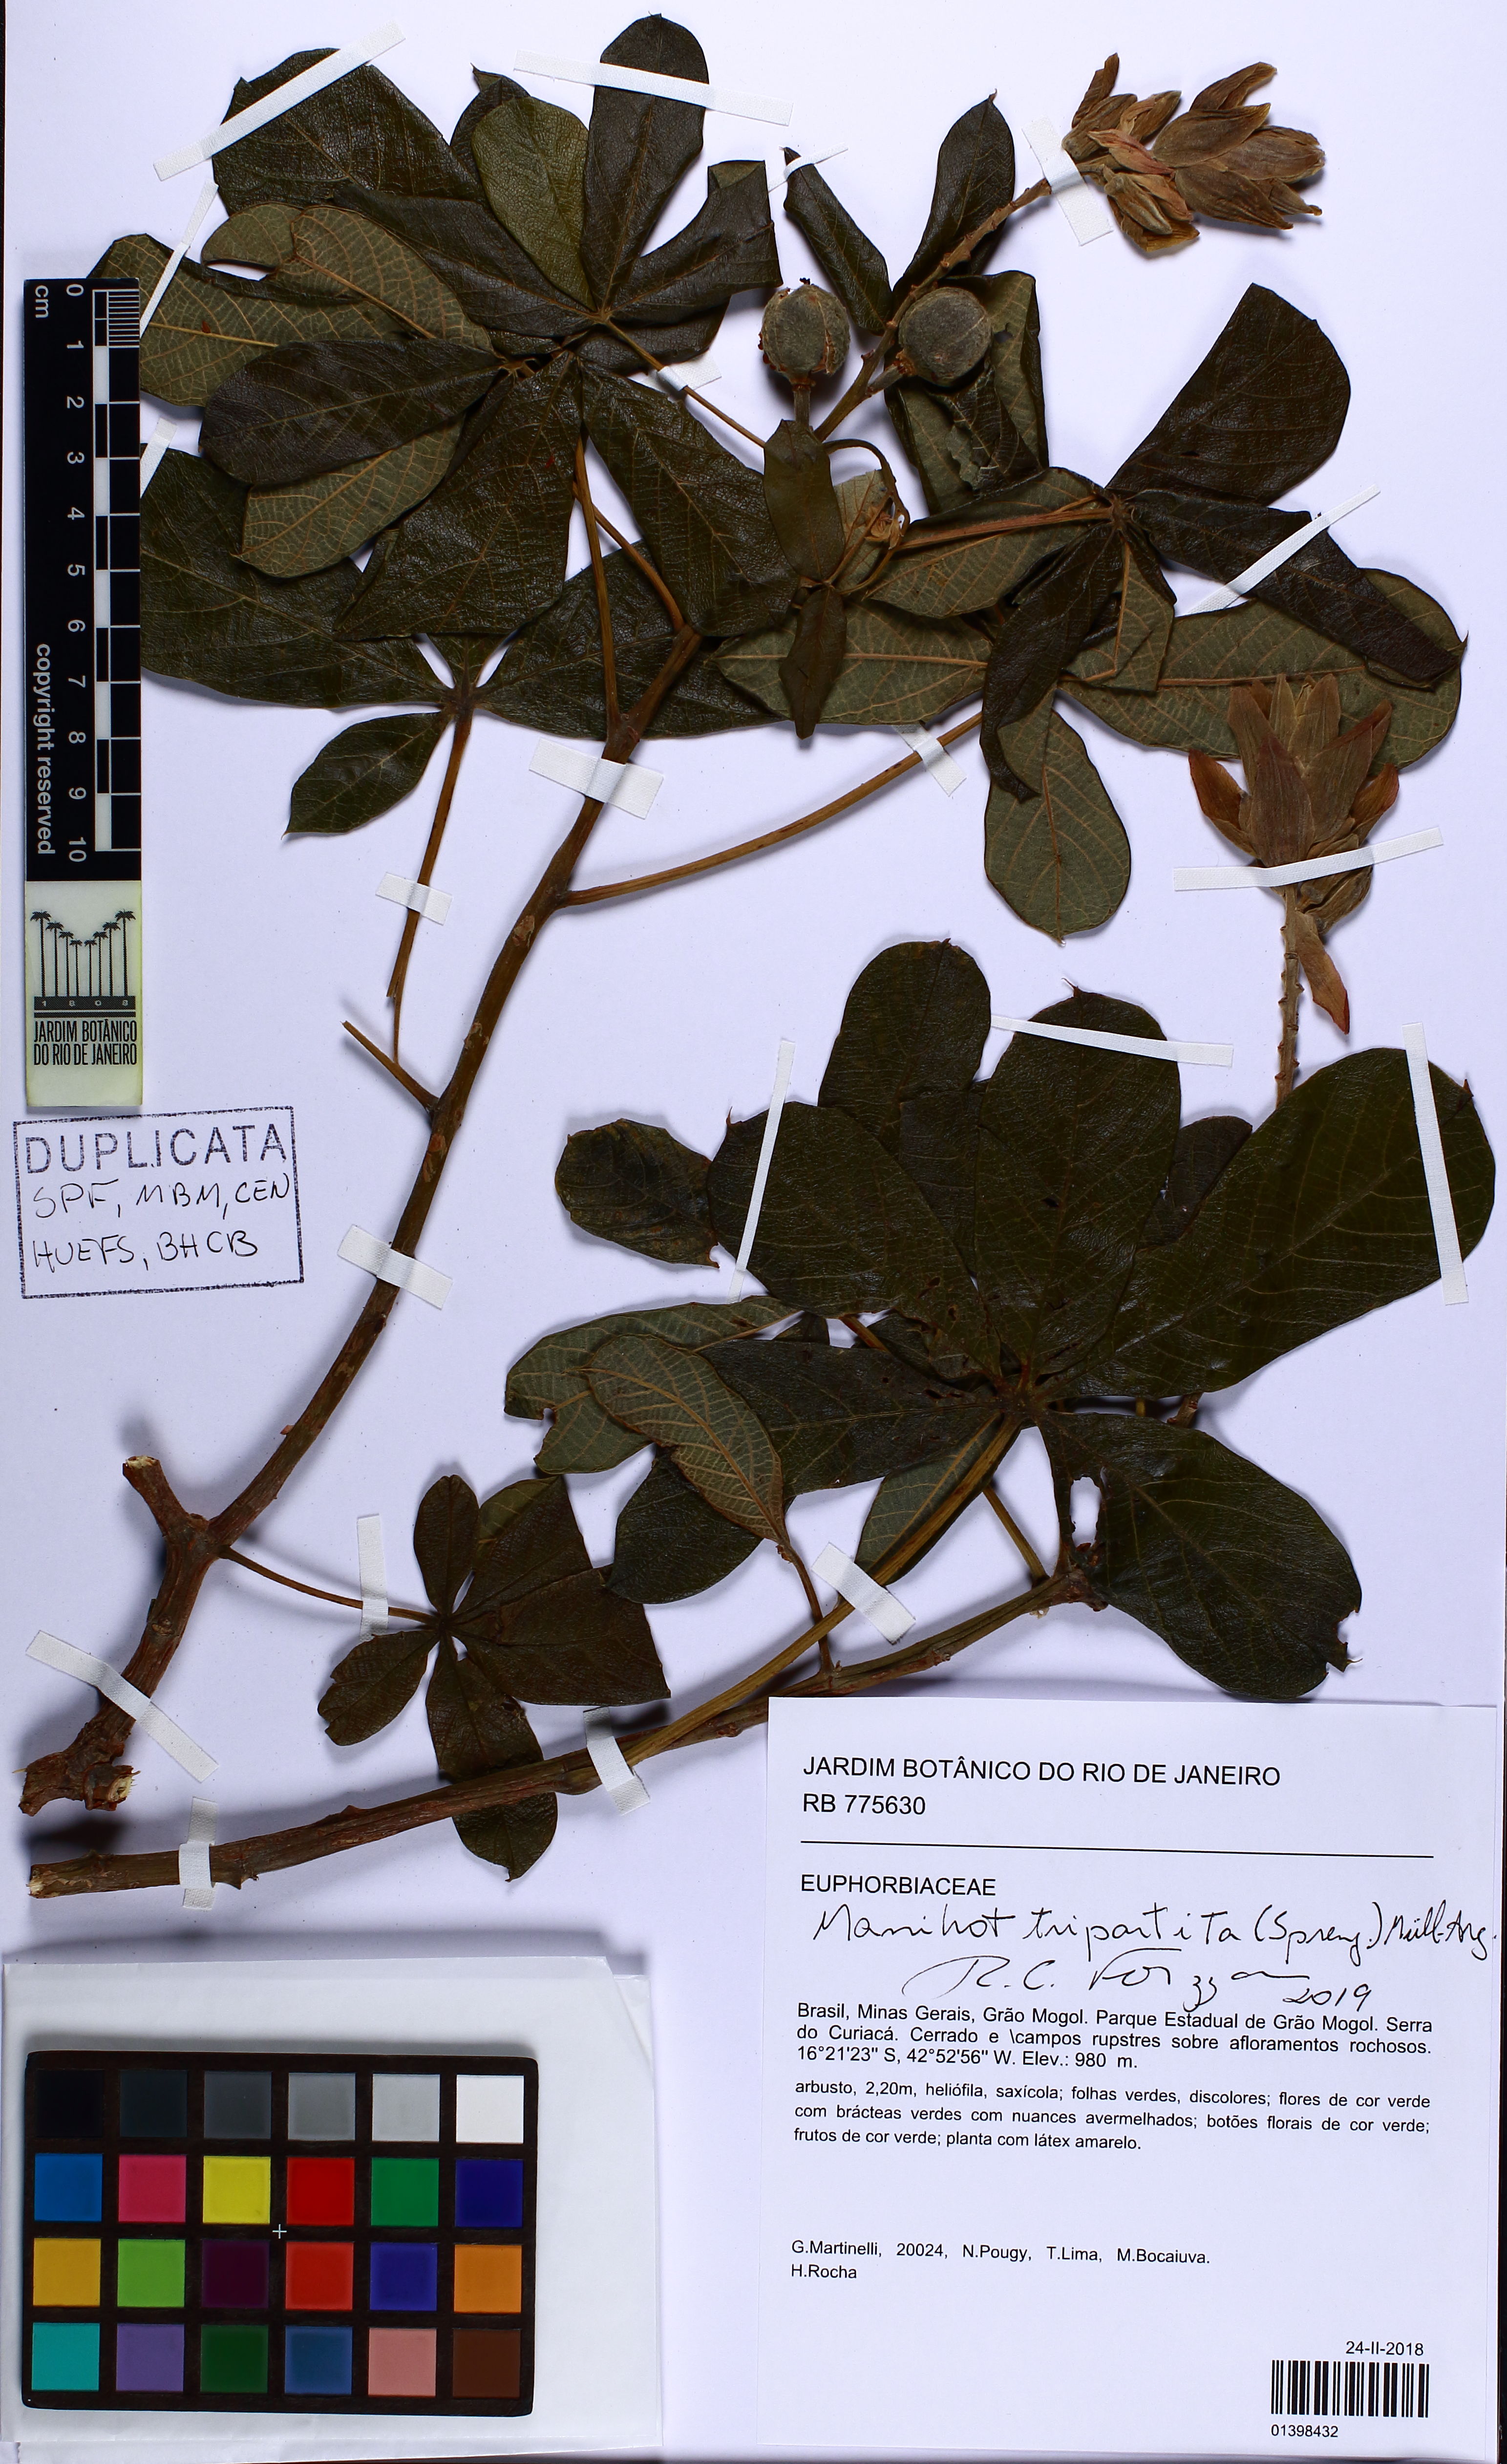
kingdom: Plantae
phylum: Tracheophyta
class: Magnoliopsida
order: Malpighiales
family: Euphorbiaceae
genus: Manihot
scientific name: Manihot tripartita
